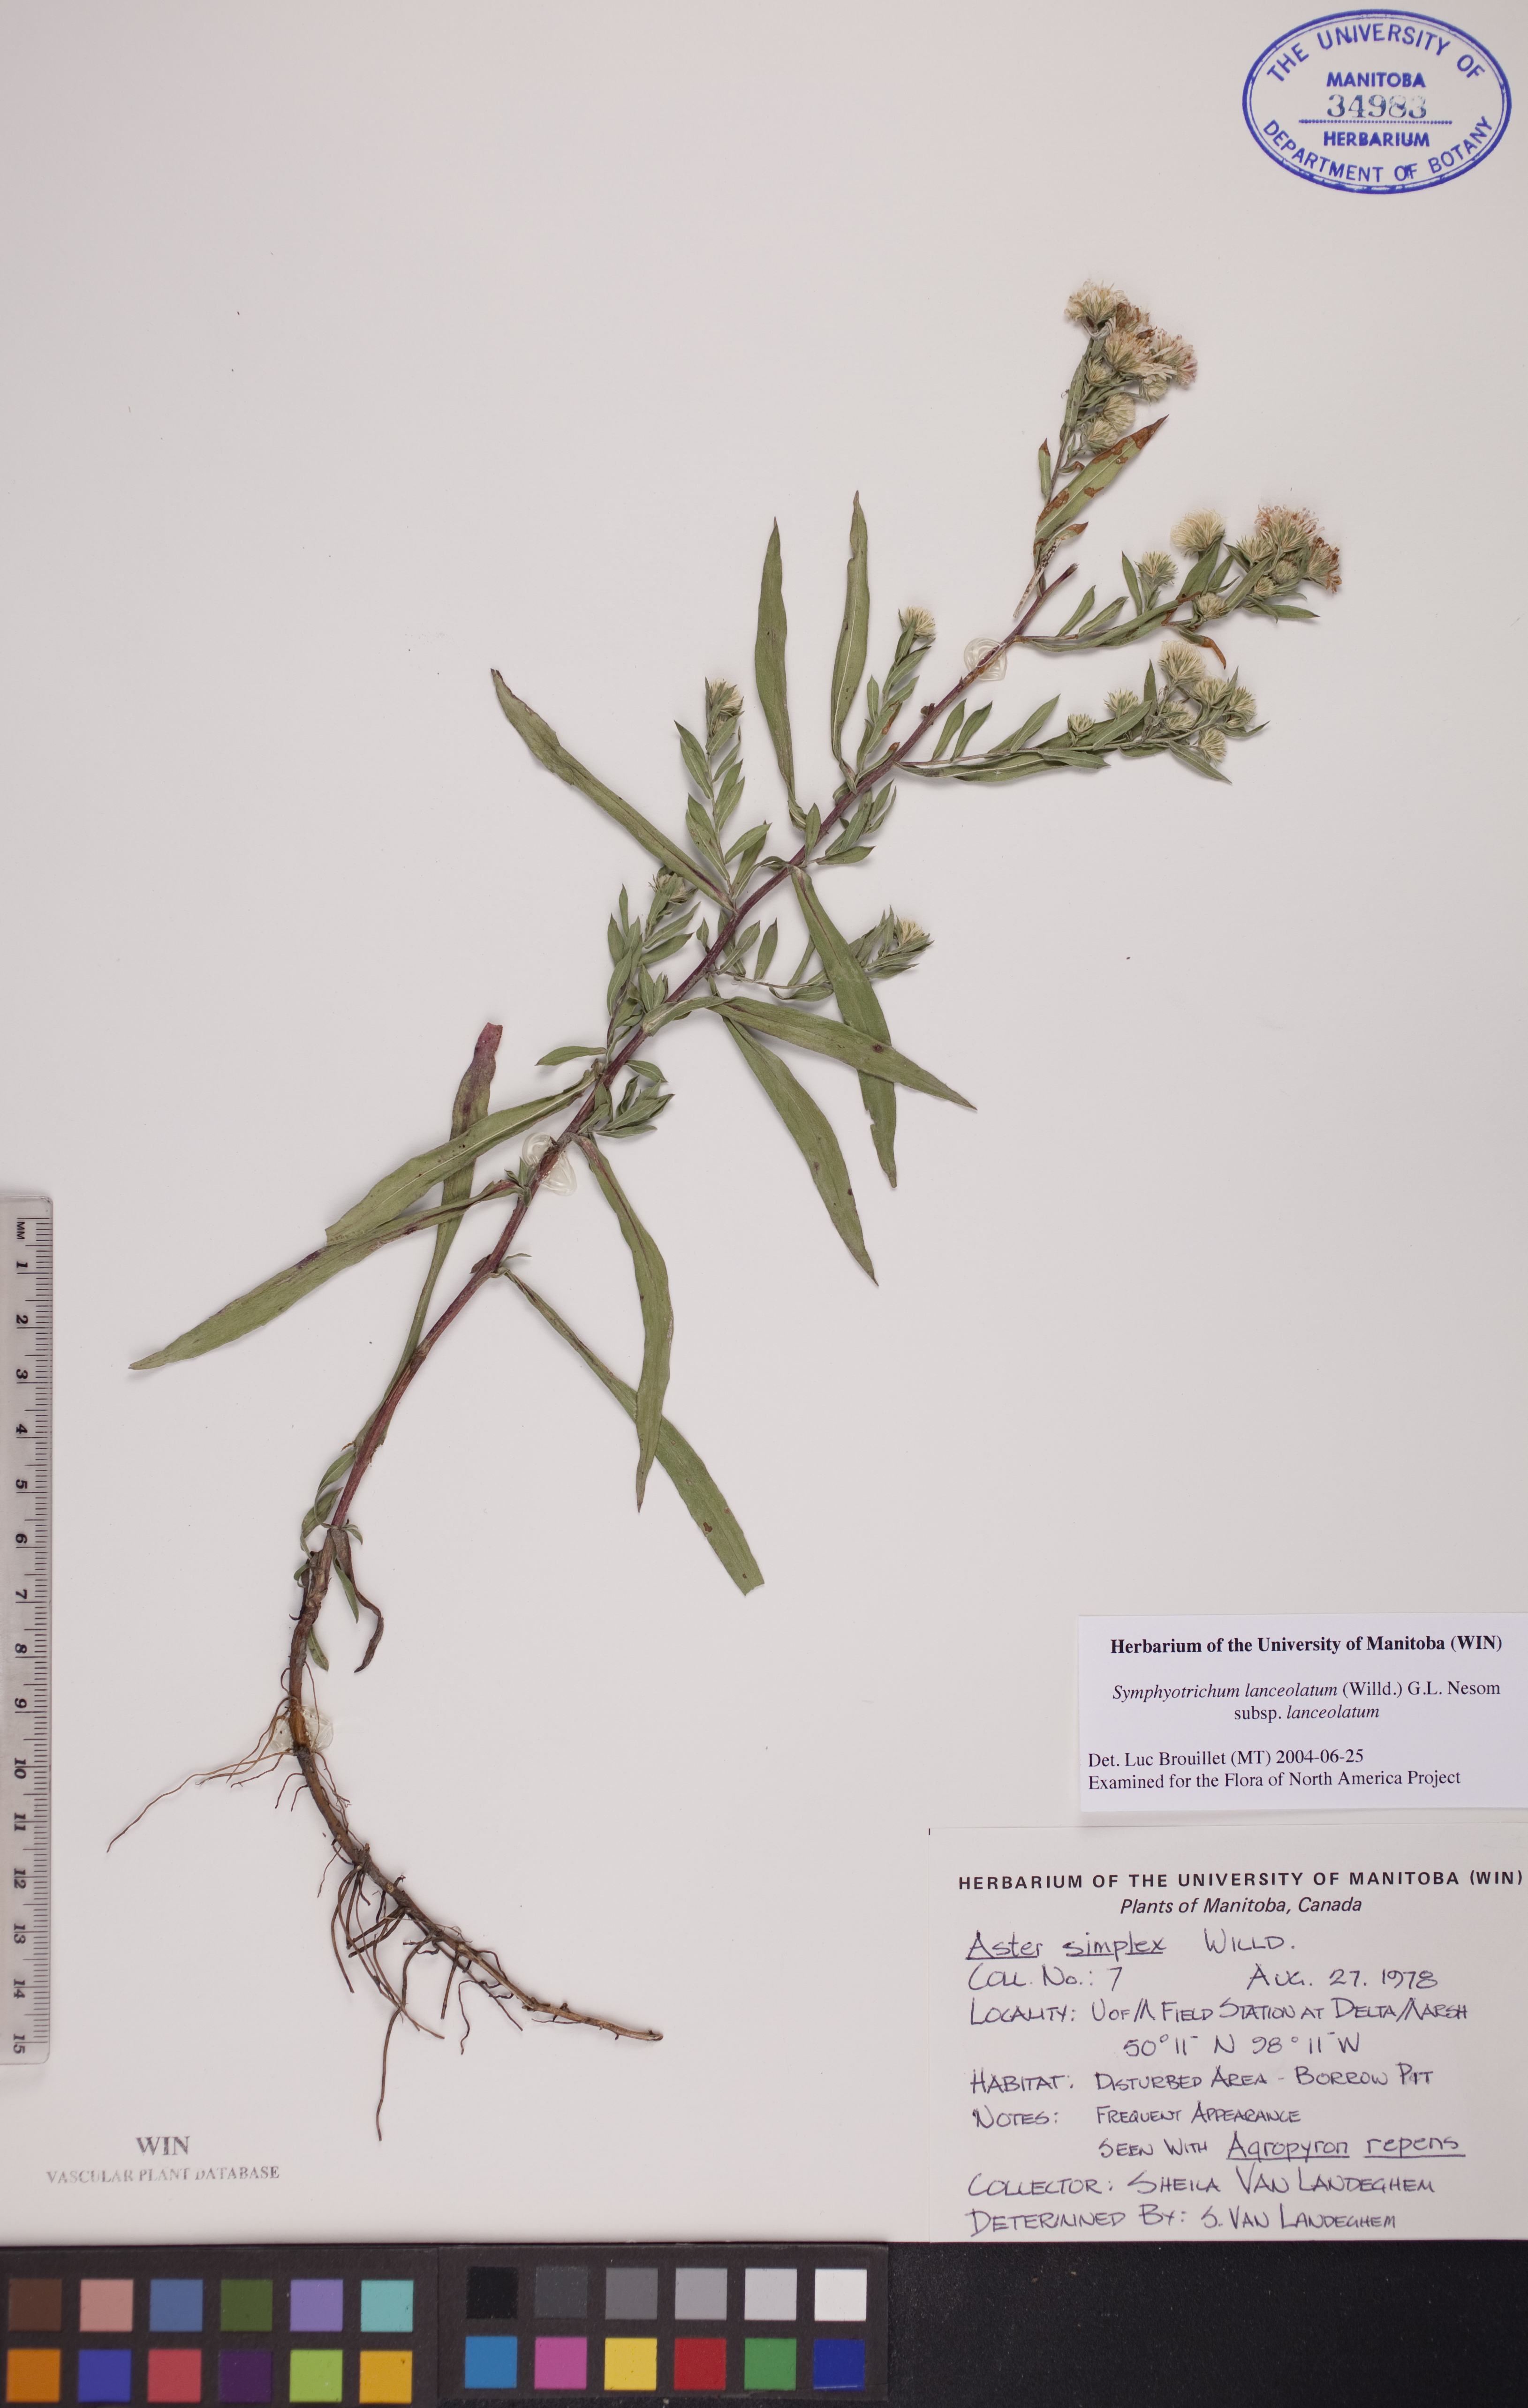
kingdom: Plantae
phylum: Tracheophyta
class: Magnoliopsida
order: Asterales
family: Asteraceae
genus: Symphyotrichum
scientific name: Symphyotrichum lanceolatum
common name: Panicled aster
